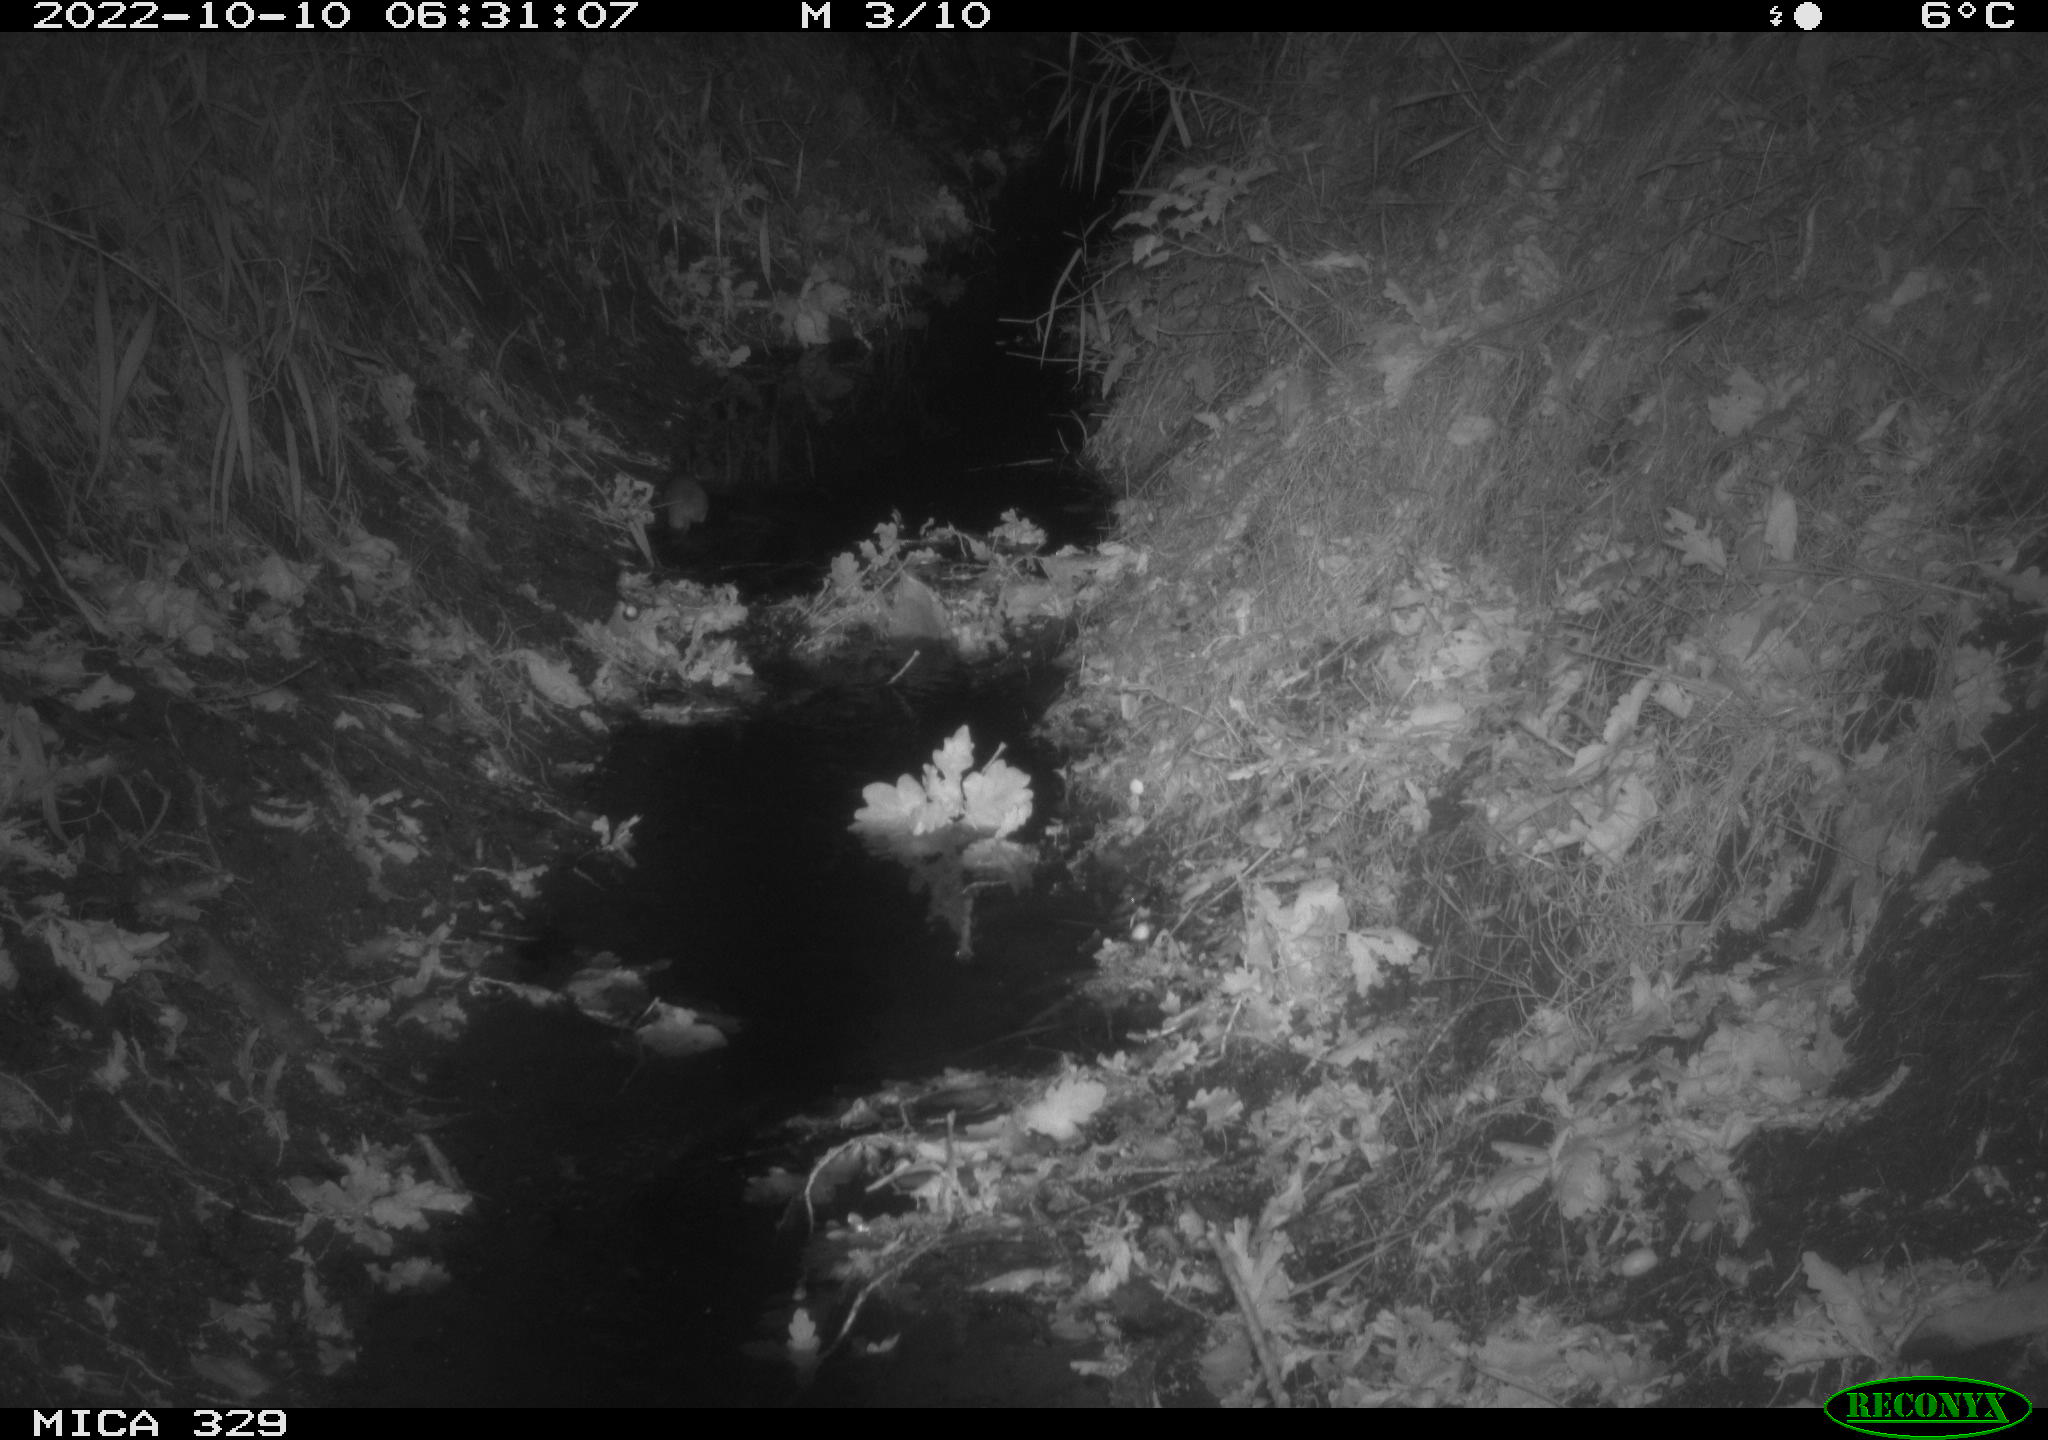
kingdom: Animalia
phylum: Chordata
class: Mammalia
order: Rodentia
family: Muridae
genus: Rattus
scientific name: Rattus norvegicus
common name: Brown rat
